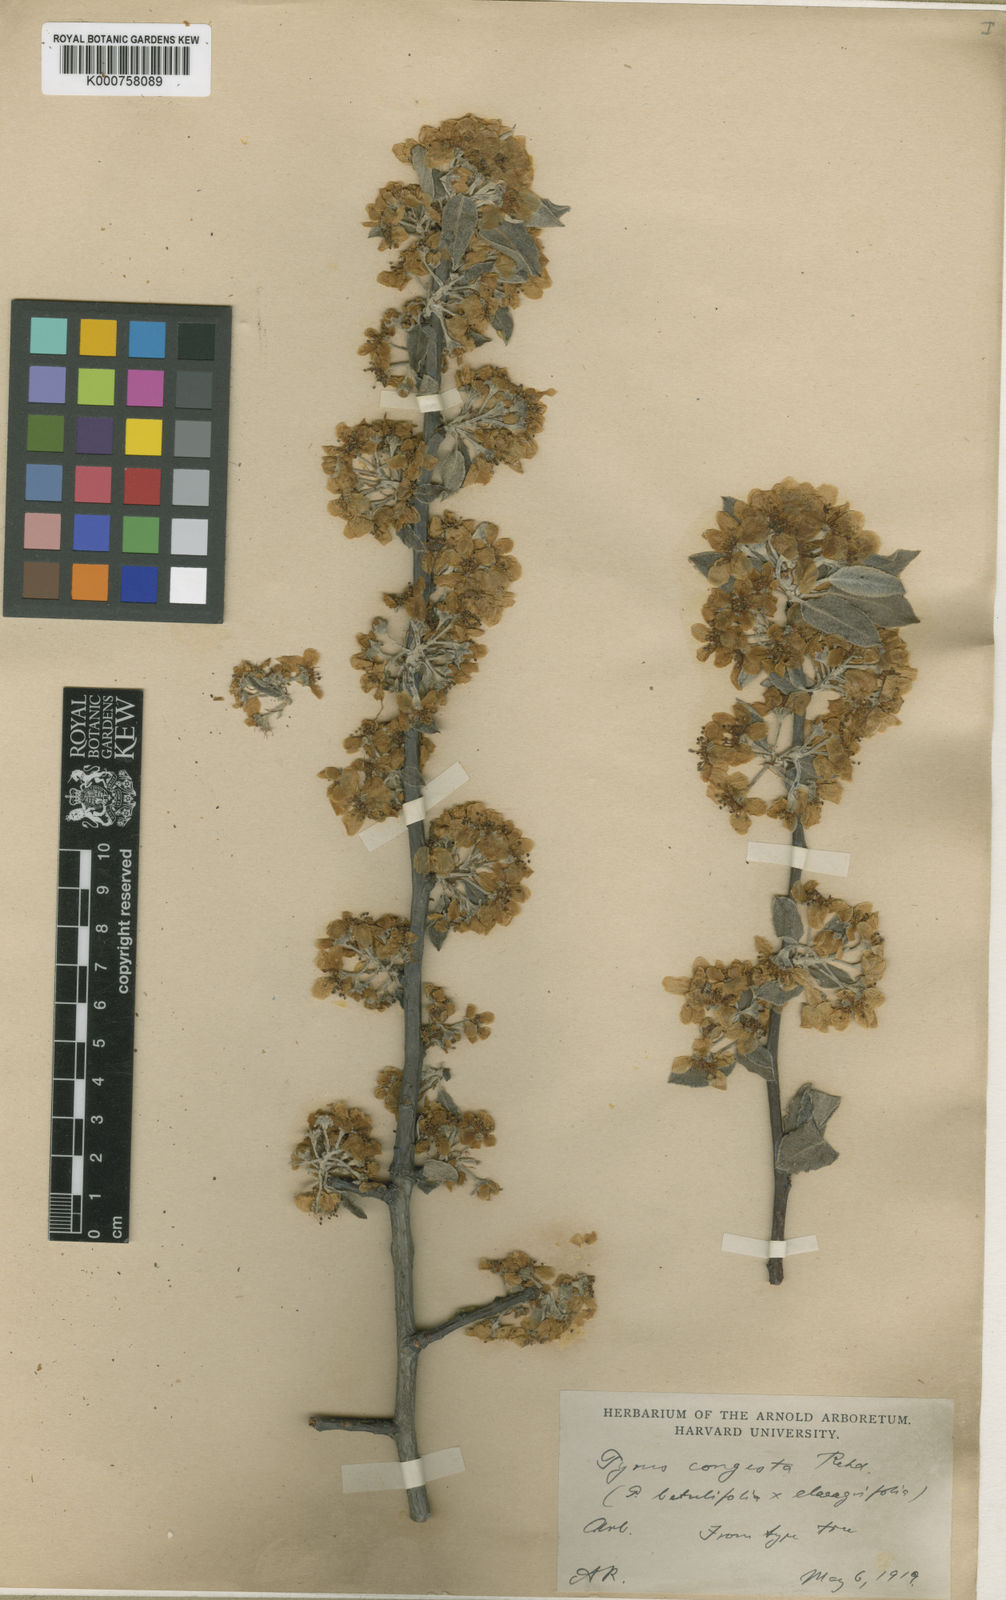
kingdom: Plantae
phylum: Tracheophyta
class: Magnoliopsida
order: Rosales
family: Rosaceae
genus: Pyrus
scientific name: Pyrus
